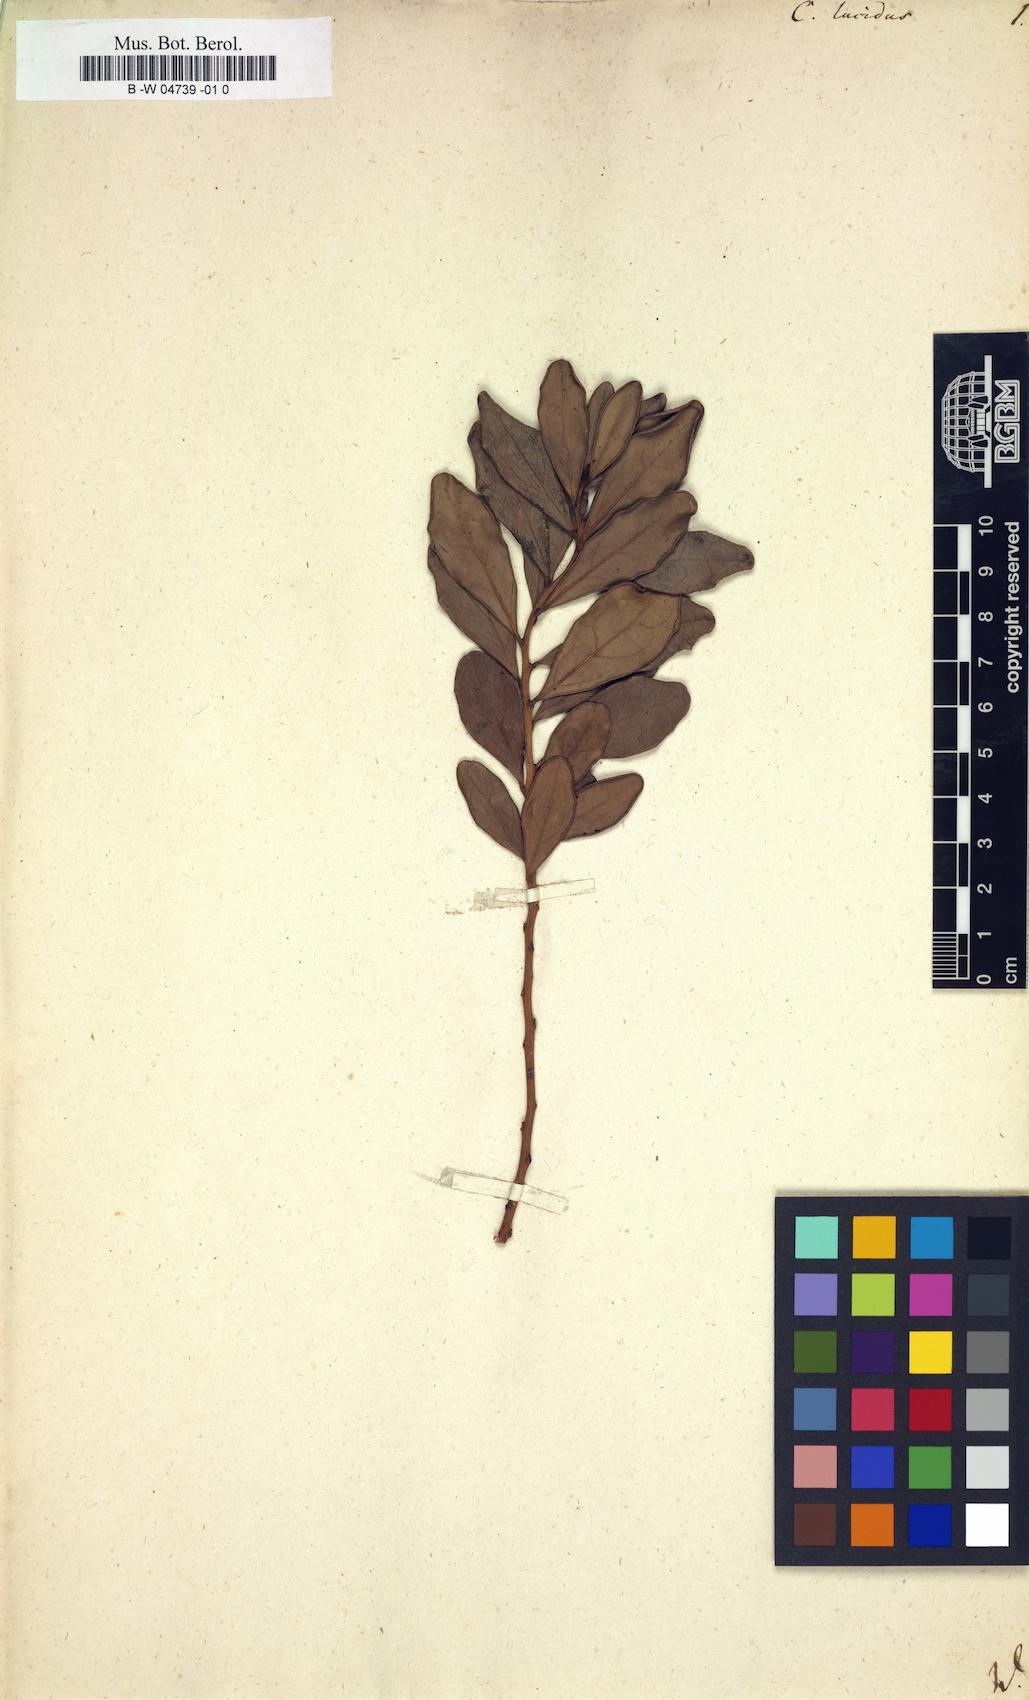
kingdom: Plantae
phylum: Tracheophyta
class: Magnoliopsida
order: Celastrales
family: Celastraceae
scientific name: Celastraceae
